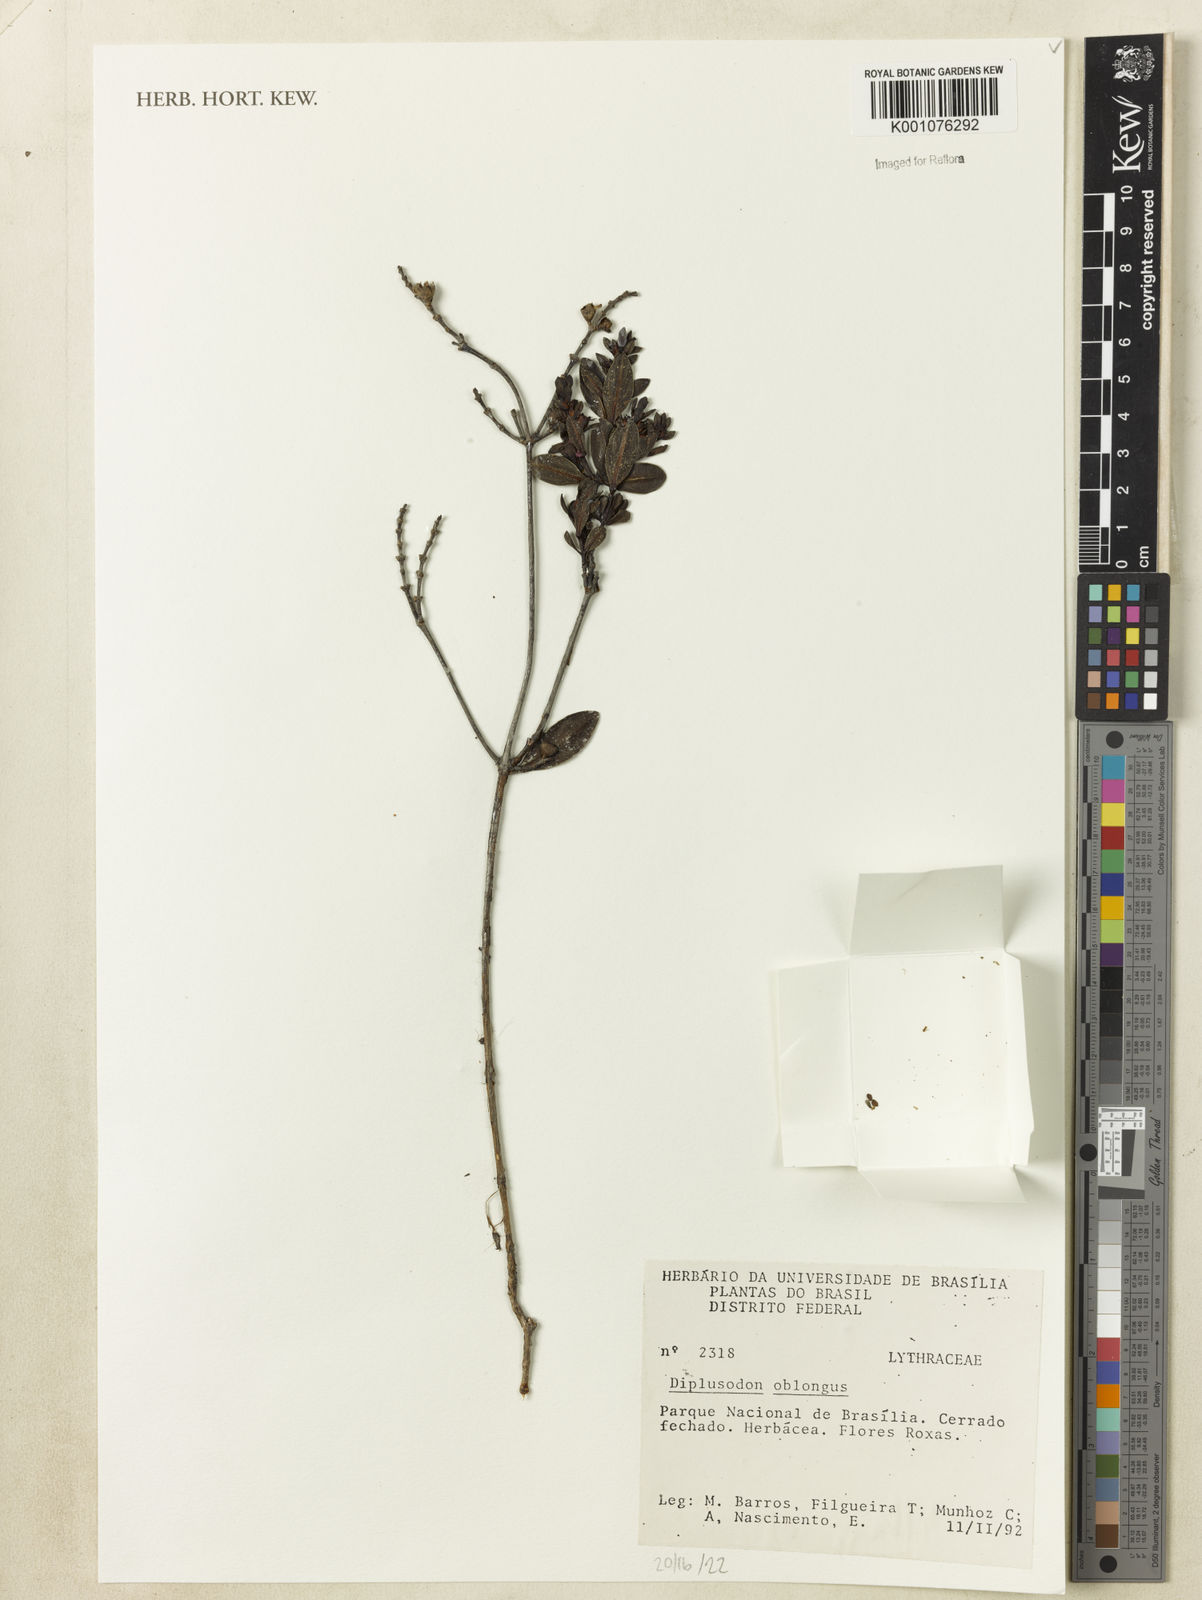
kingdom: Plantae
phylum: Tracheophyta
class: Magnoliopsida
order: Myrtales
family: Lythraceae
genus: Diplusodon
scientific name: Diplusodon oblongus
